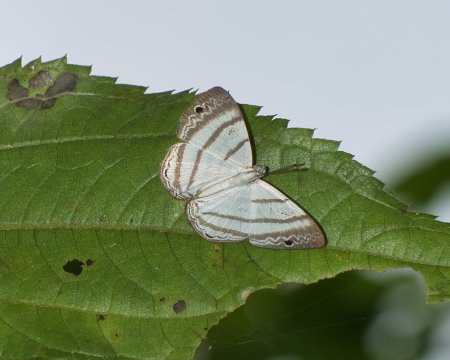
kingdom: Animalia
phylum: Arthropoda
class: Insecta
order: Lepidoptera
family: Riodinidae
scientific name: Riodinidae
